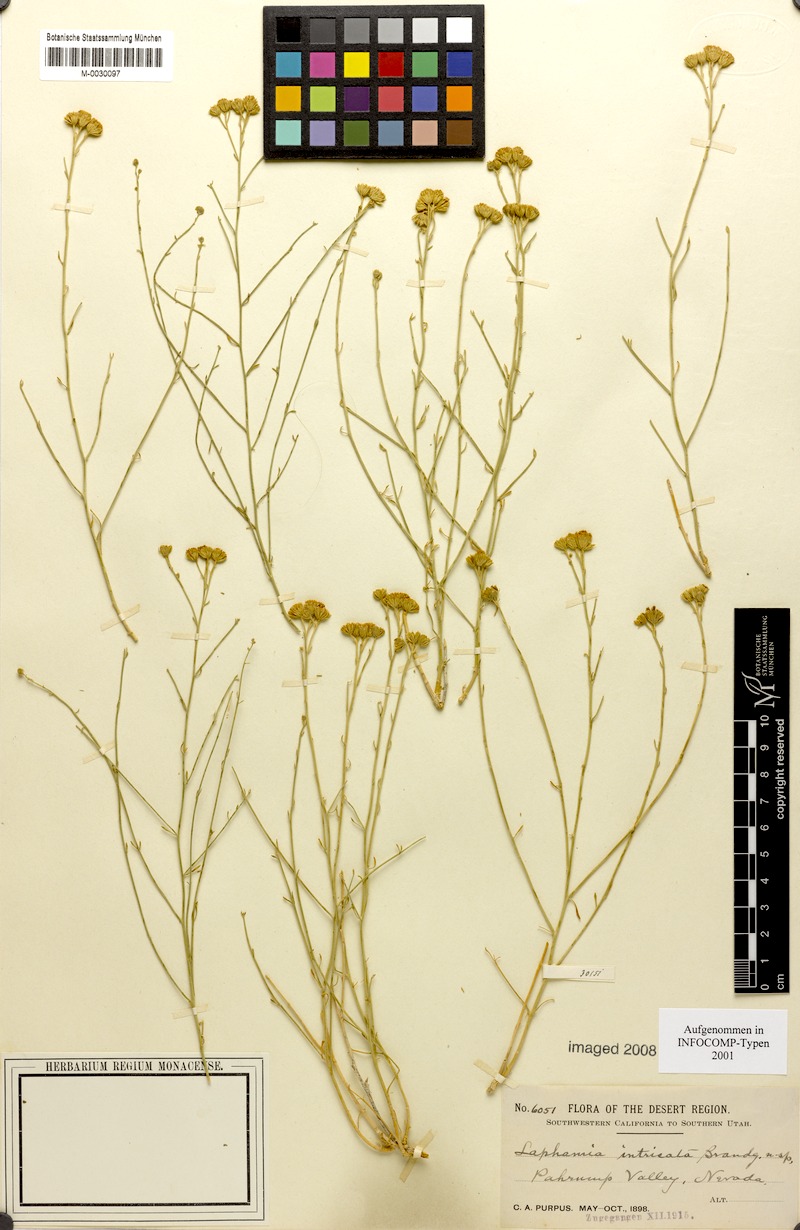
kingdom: Plantae
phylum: Tracheophyta
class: Magnoliopsida
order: Asterales
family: Asteraceae
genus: Laphamia
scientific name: Laphamia intricata
